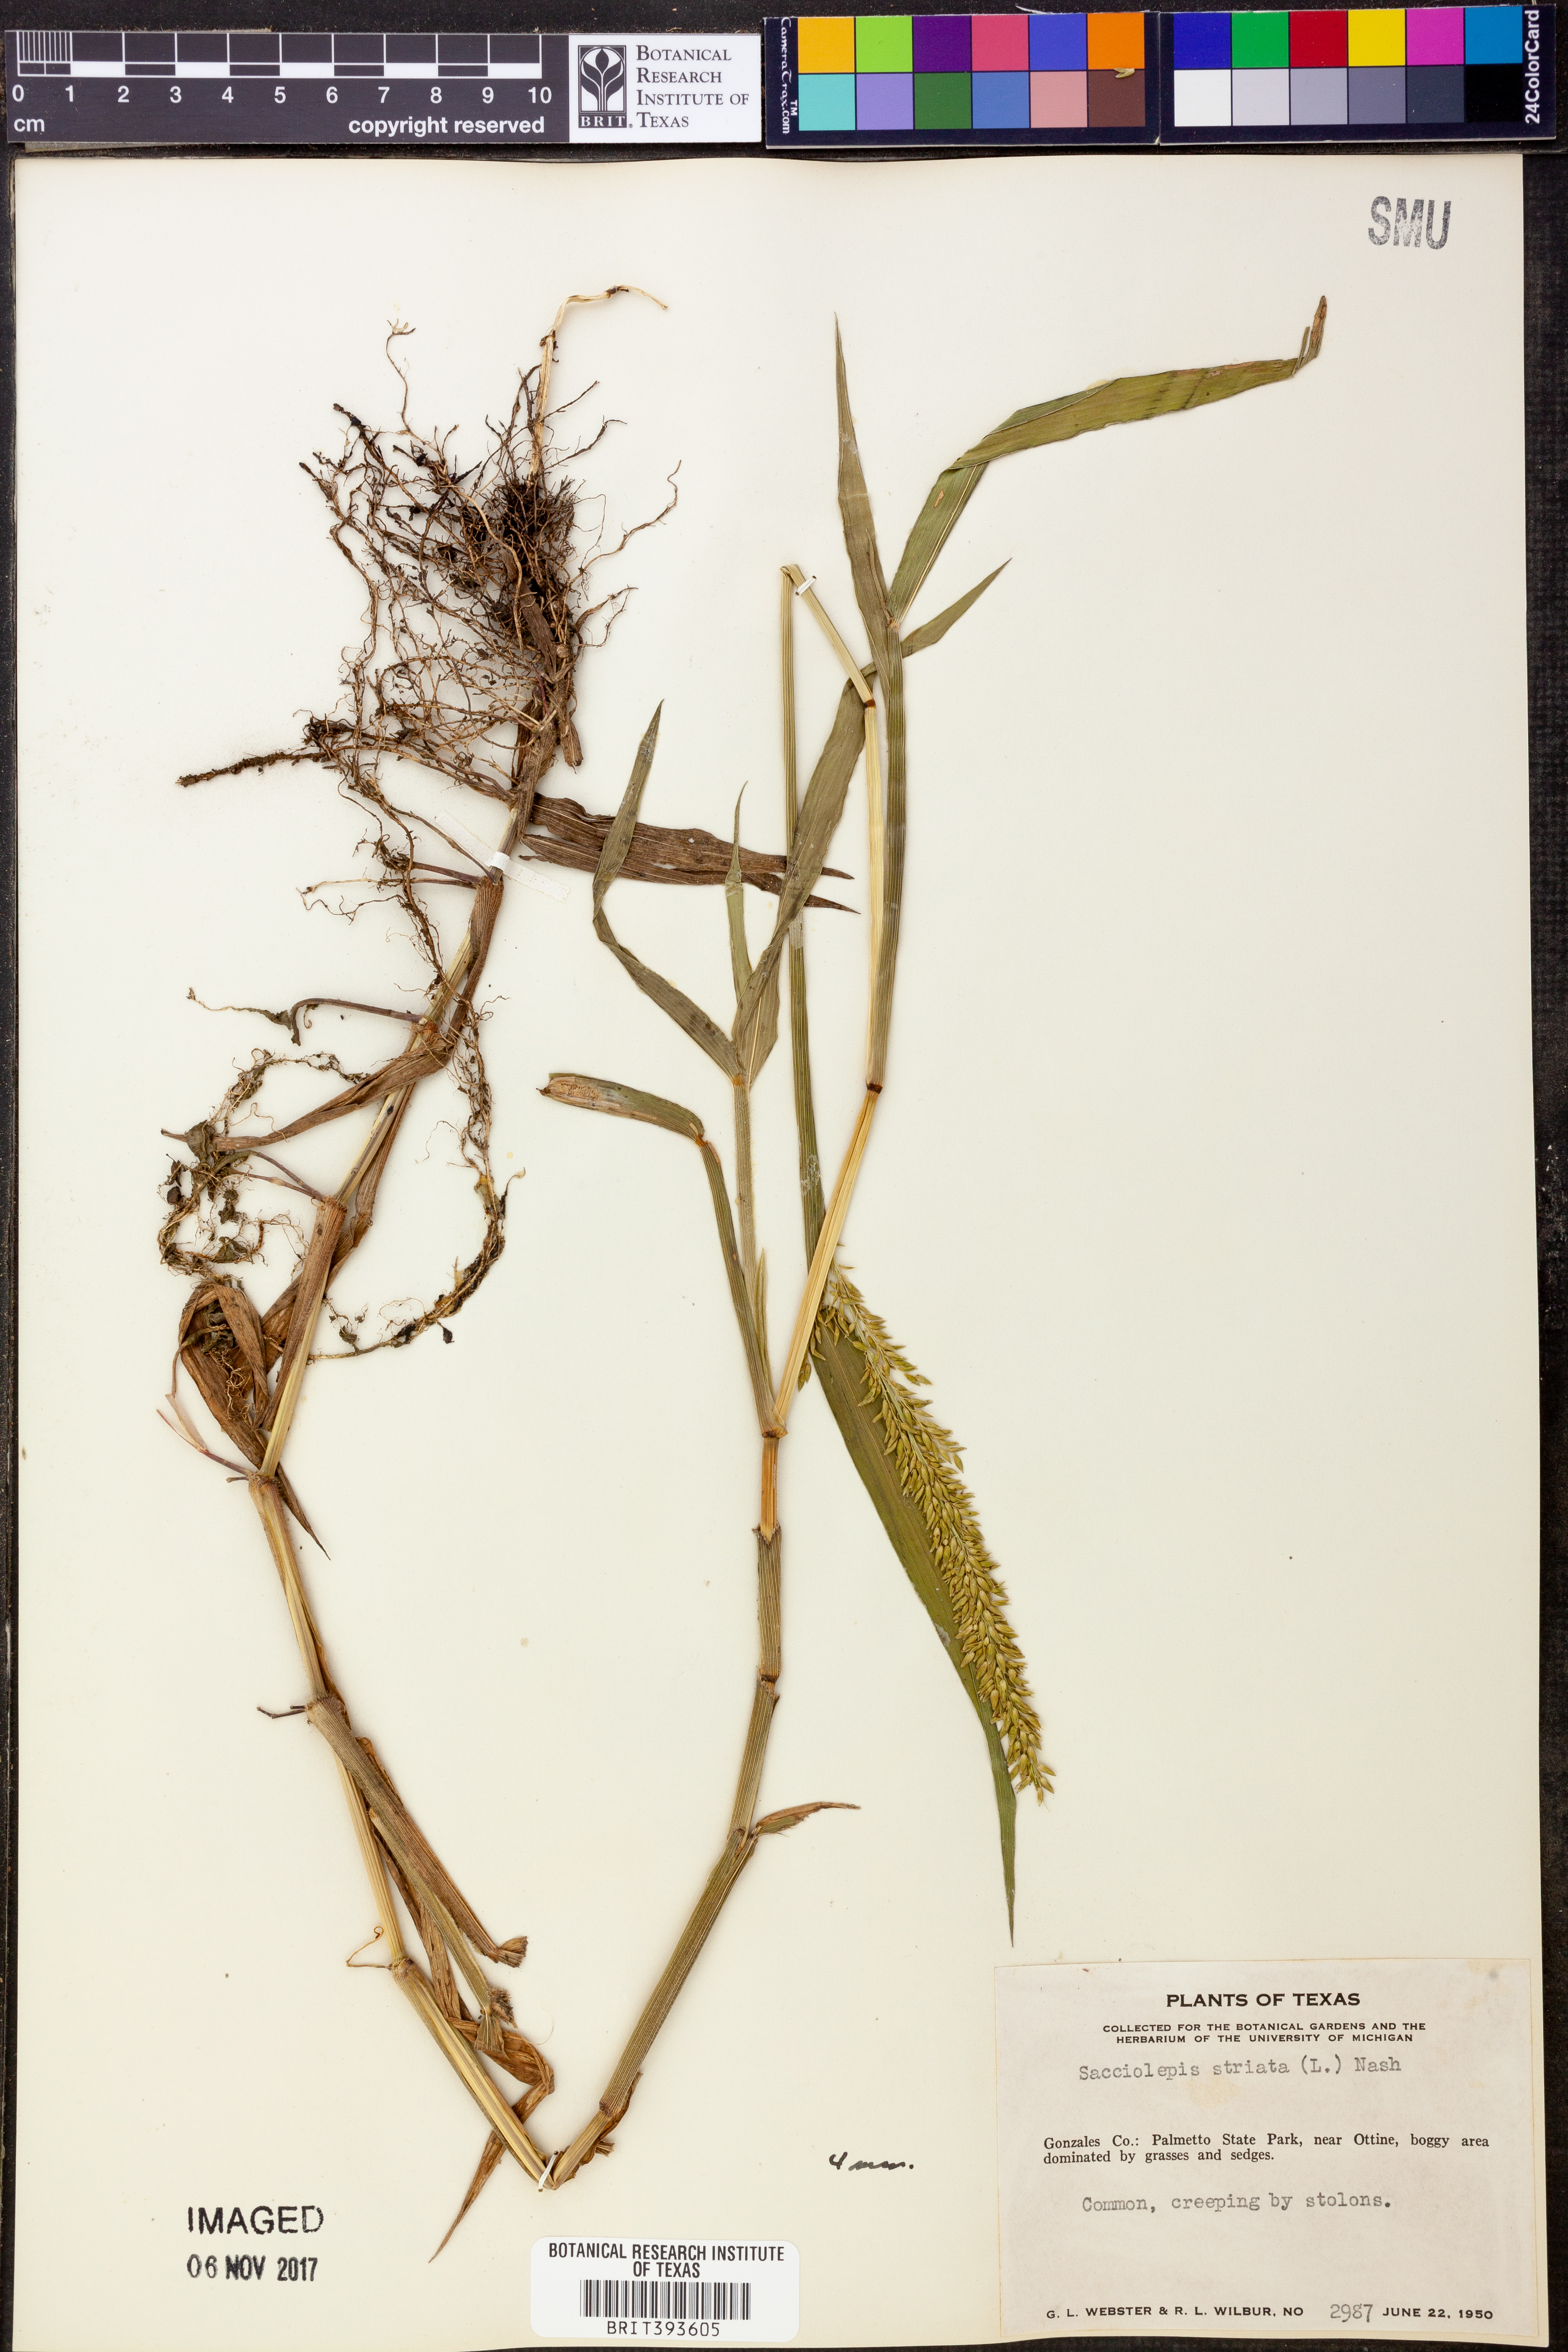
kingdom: Plantae
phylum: Tracheophyta
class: Liliopsida
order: Poales
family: Poaceae
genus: Sacciolepis
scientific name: Sacciolepis striata
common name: American cupscale
